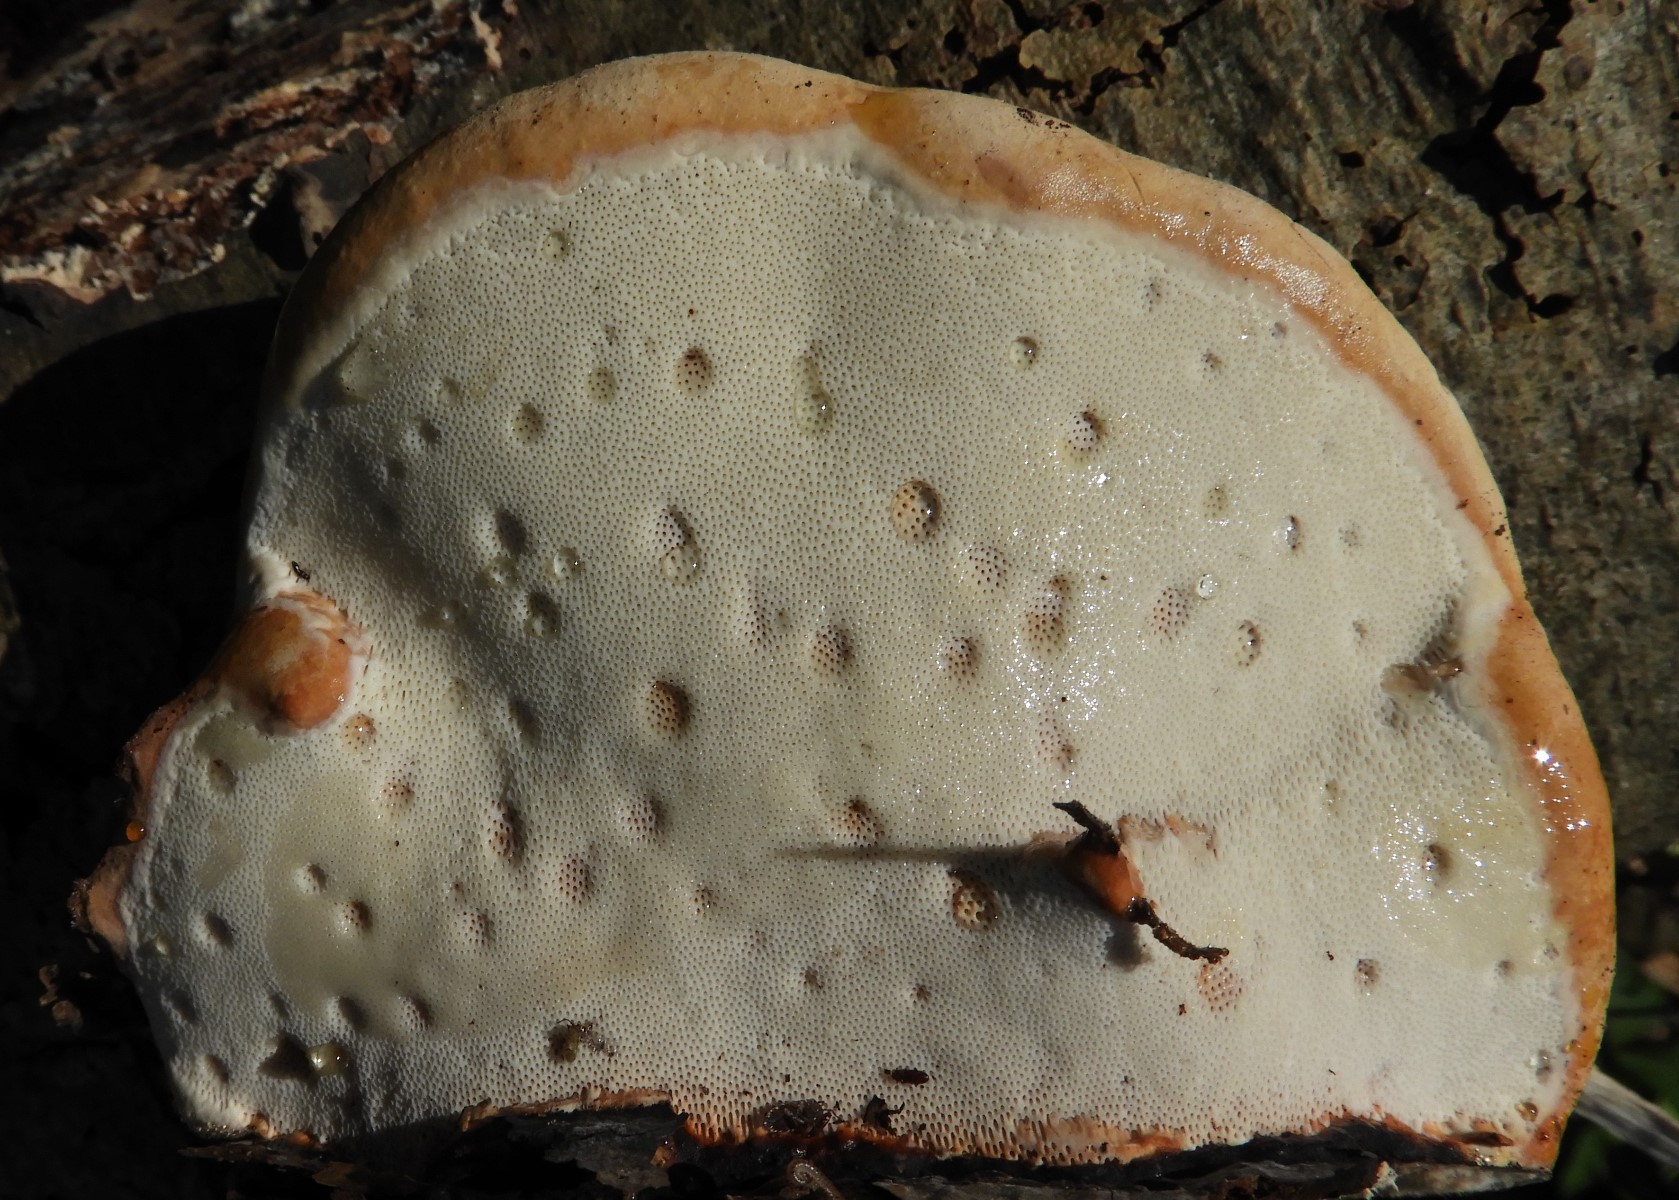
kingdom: Fungi
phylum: Basidiomycota
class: Agaricomycetes
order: Polyporales
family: Fomitopsidaceae
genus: Fomitopsis
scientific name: Fomitopsis pinicola
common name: randbæltet hovporesvamp
